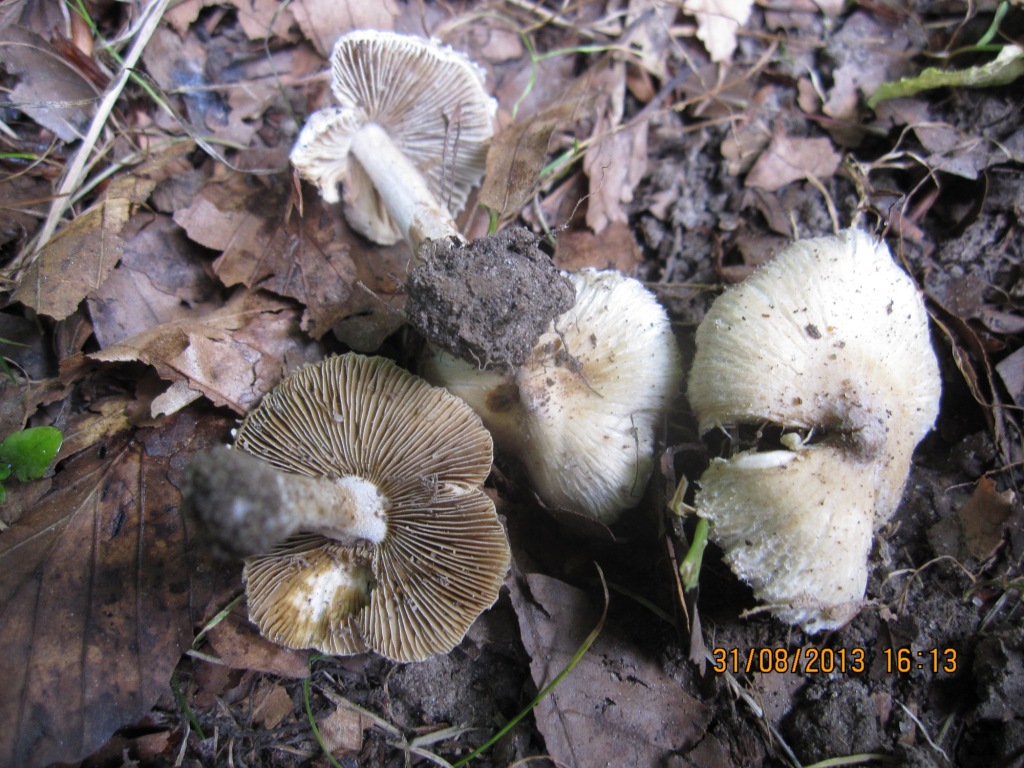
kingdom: Fungi
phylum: Basidiomycota
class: Agaricomycetes
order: Agaricales
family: Inocybaceae
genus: Pseudosperma
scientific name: Pseudosperma rimosum
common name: gulbladet trævlhat
